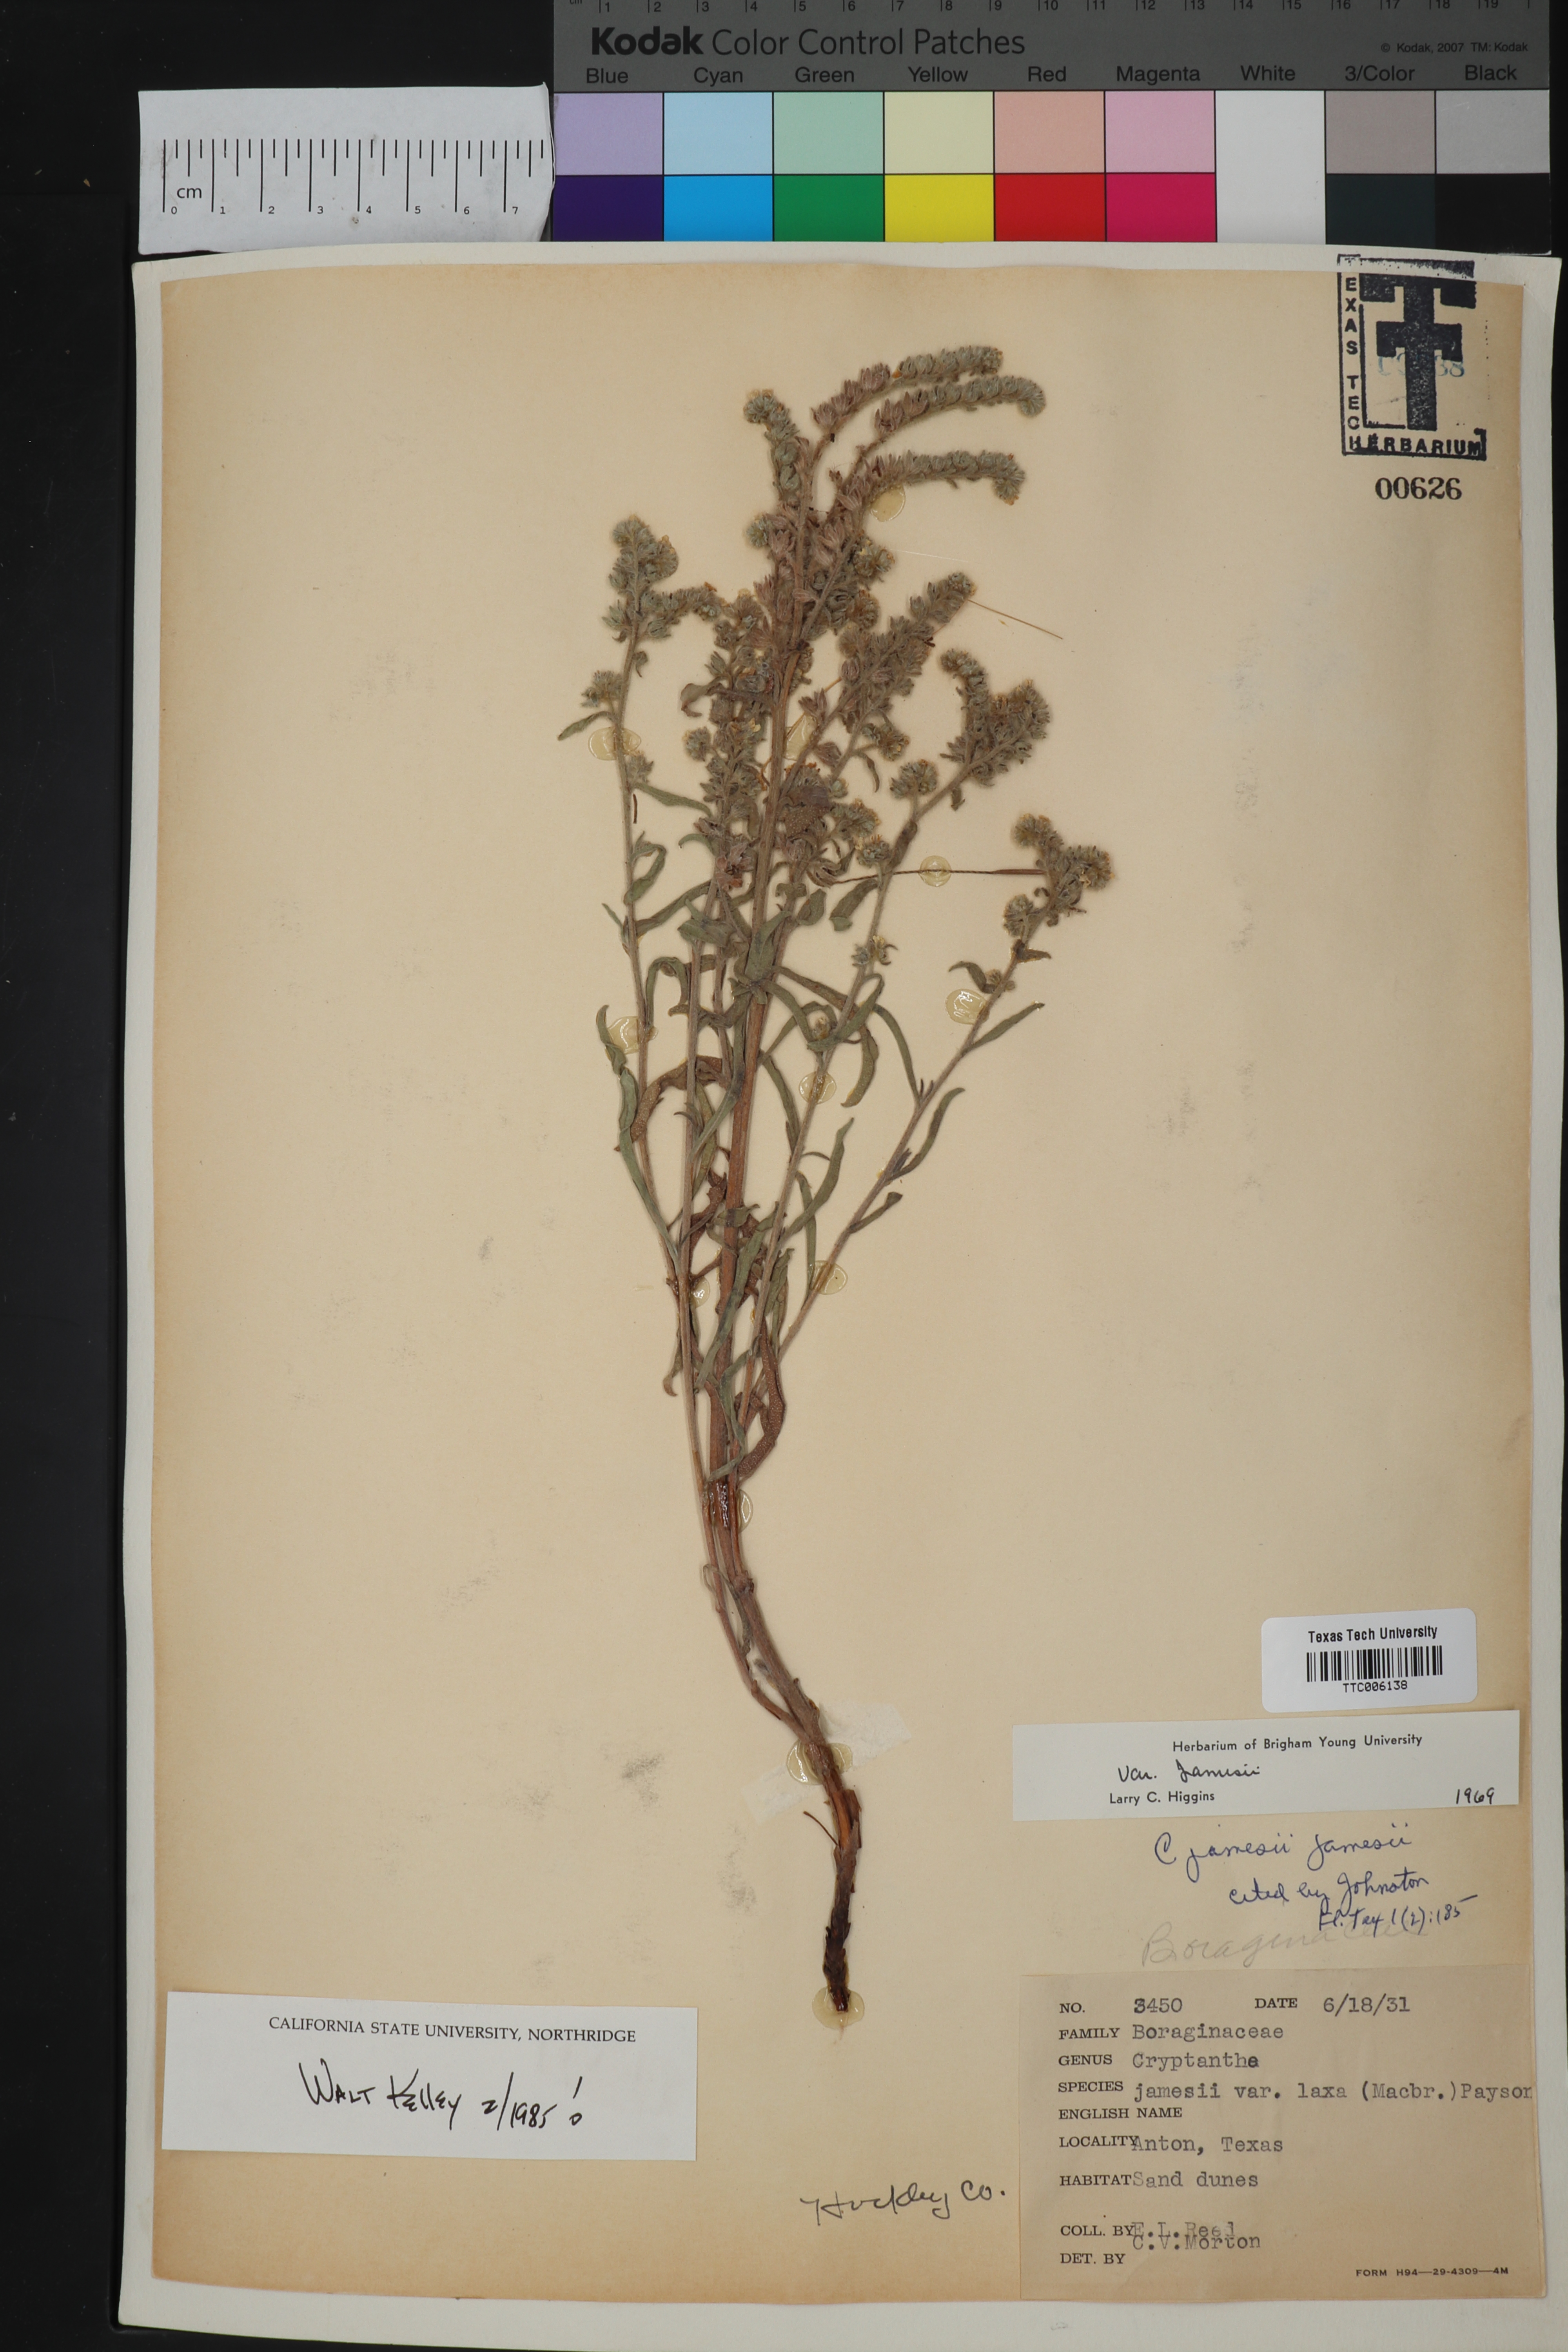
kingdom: Plantae
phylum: Tracheophyta
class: Magnoliopsida
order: Boraginales
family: Boraginaceae
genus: Oreocarya
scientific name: Oreocarya suffruticosa
